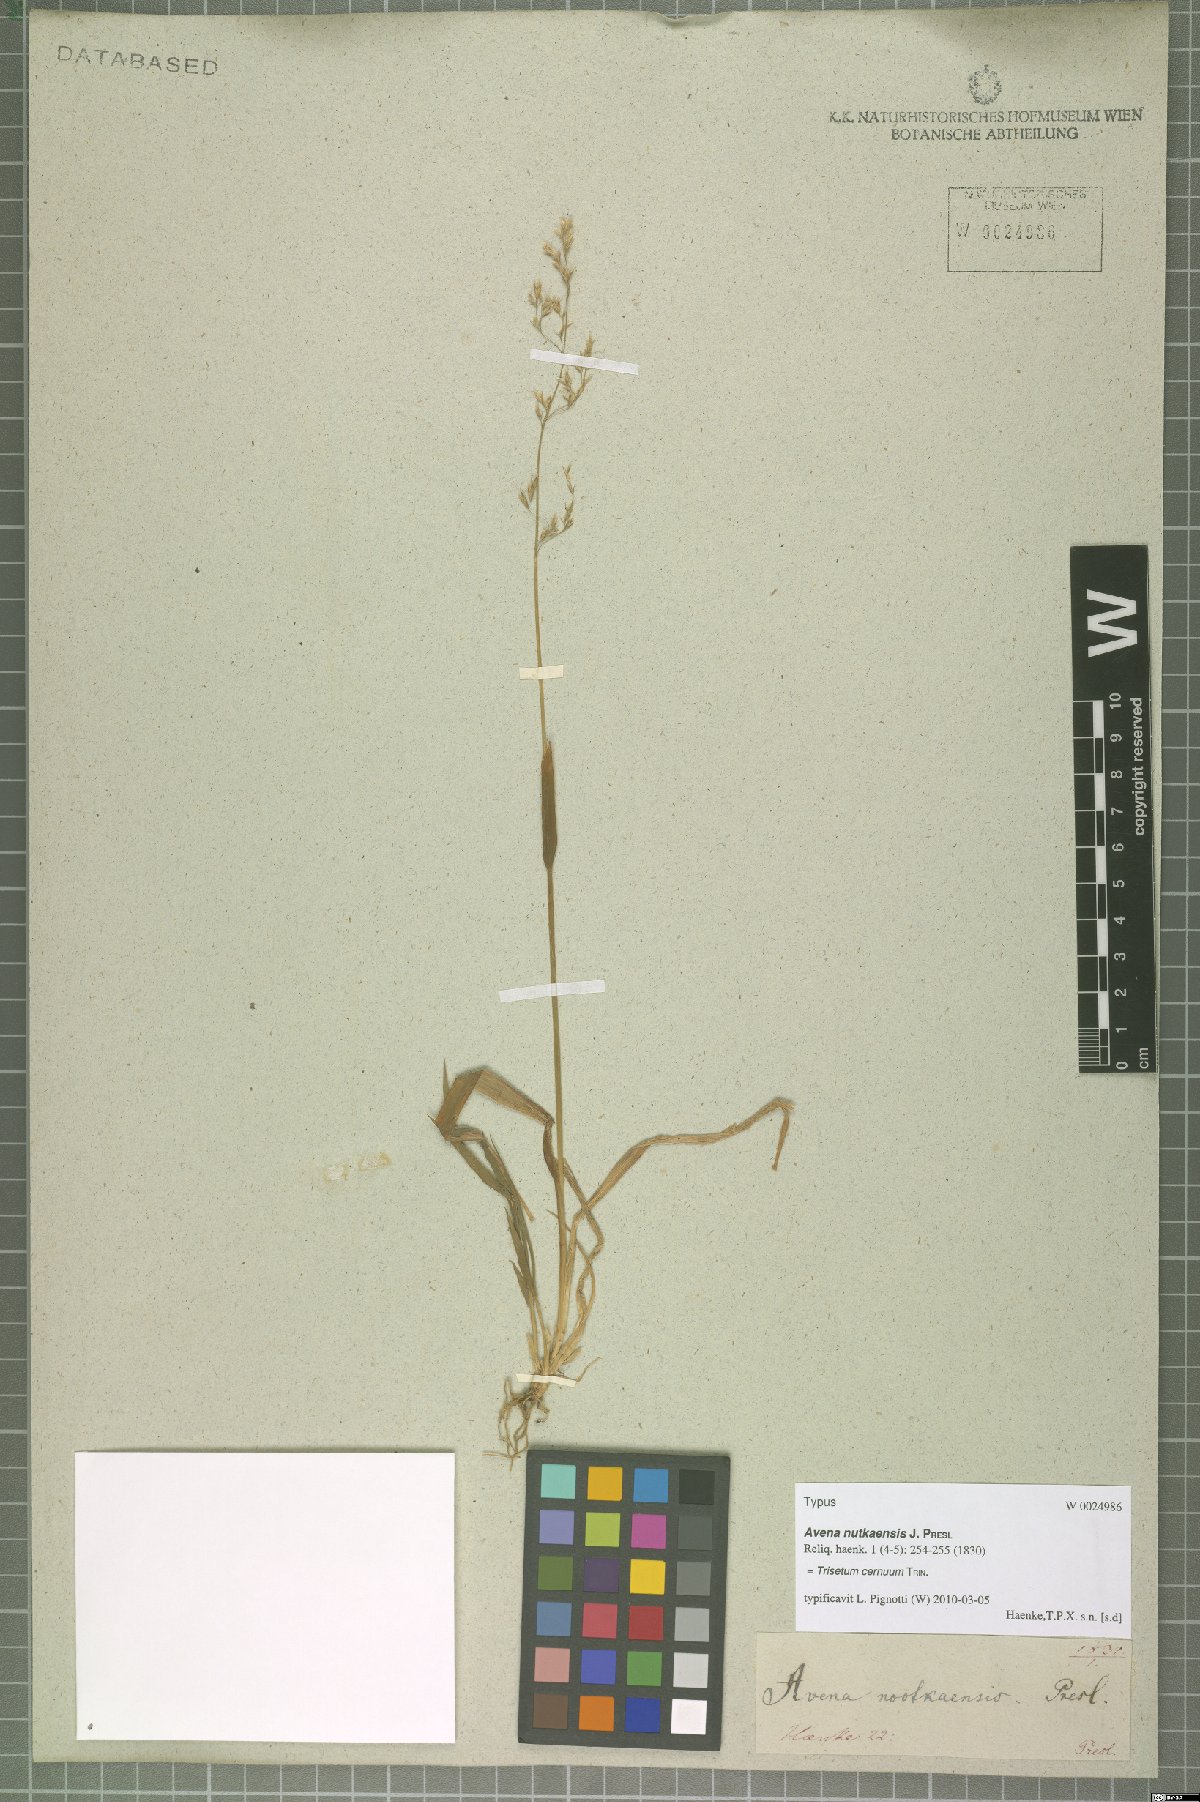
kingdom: Plantae
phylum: Tracheophyta
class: Liliopsida
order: Poales
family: Poaceae
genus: Graphephorum
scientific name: Graphephorum cernuum
